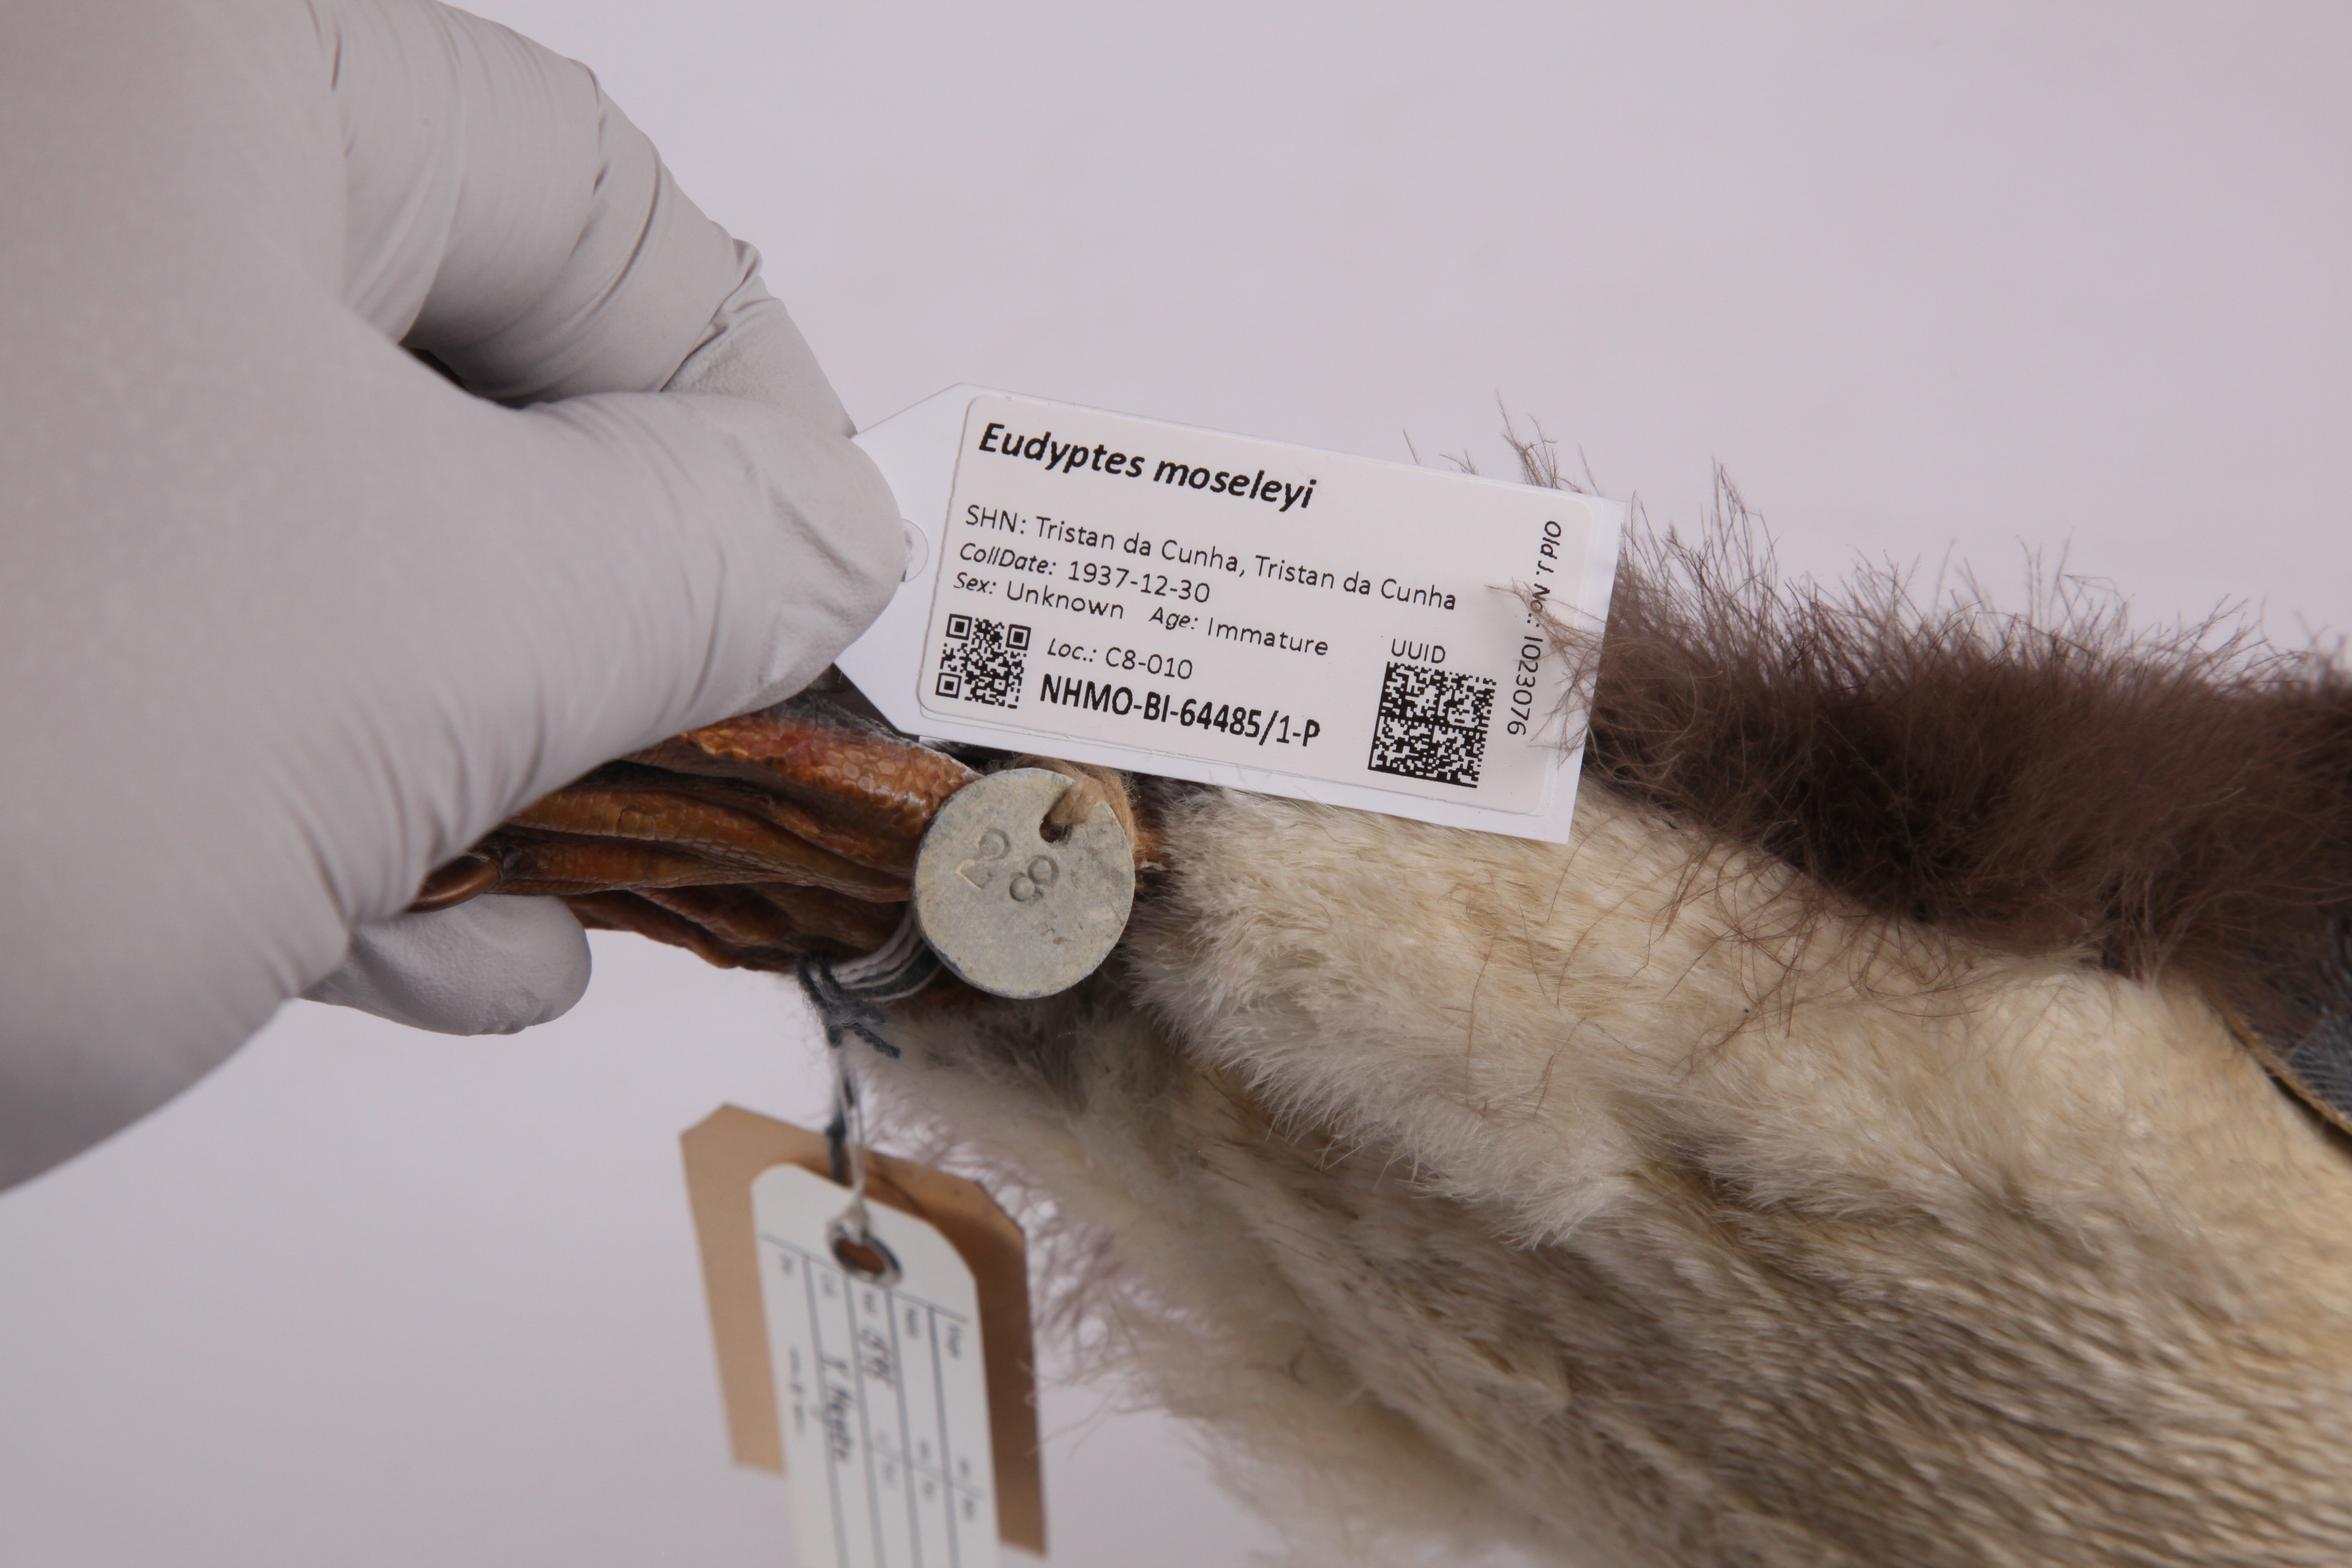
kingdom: Animalia
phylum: Chordata
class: Aves
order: Sphenisciformes
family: Spheniscidae
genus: Eudyptes
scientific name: Eudyptes moseleyi
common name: Northern rockhopper penguin
